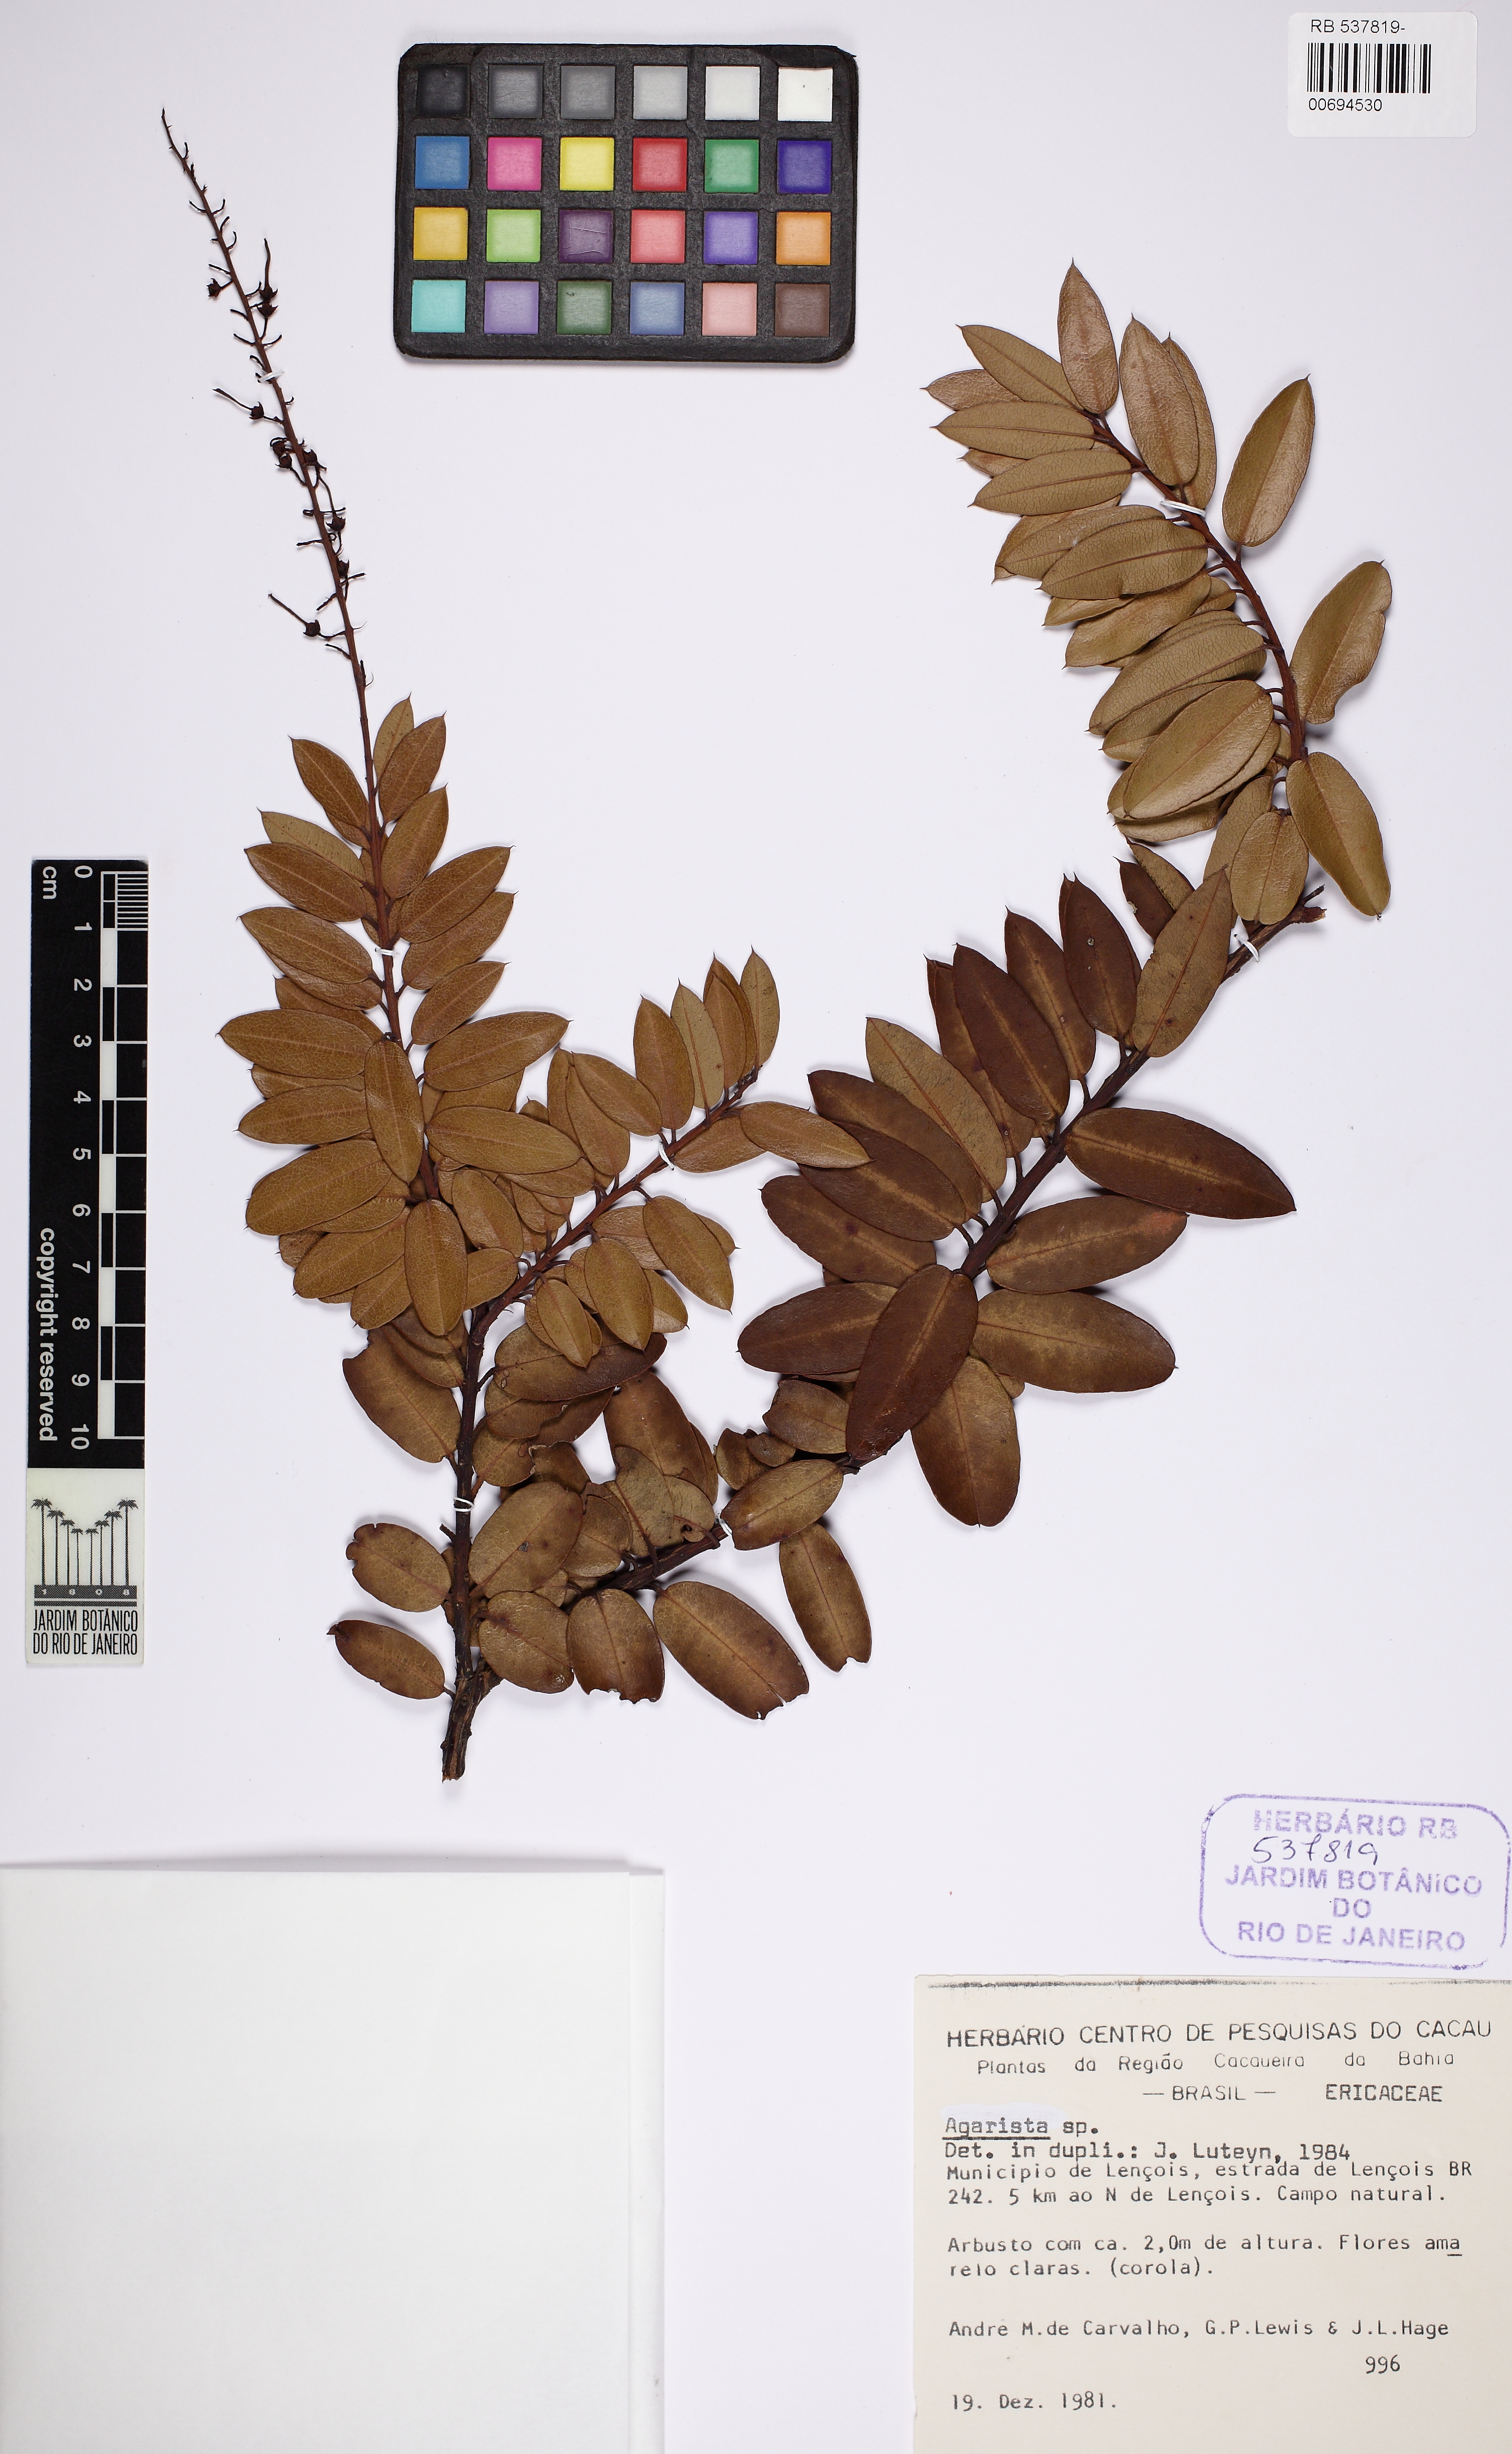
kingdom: Plantae
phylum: Tracheophyta
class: Magnoliopsida
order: Ericales
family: Ericaceae
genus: Agarista
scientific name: Agarista coriifolia
